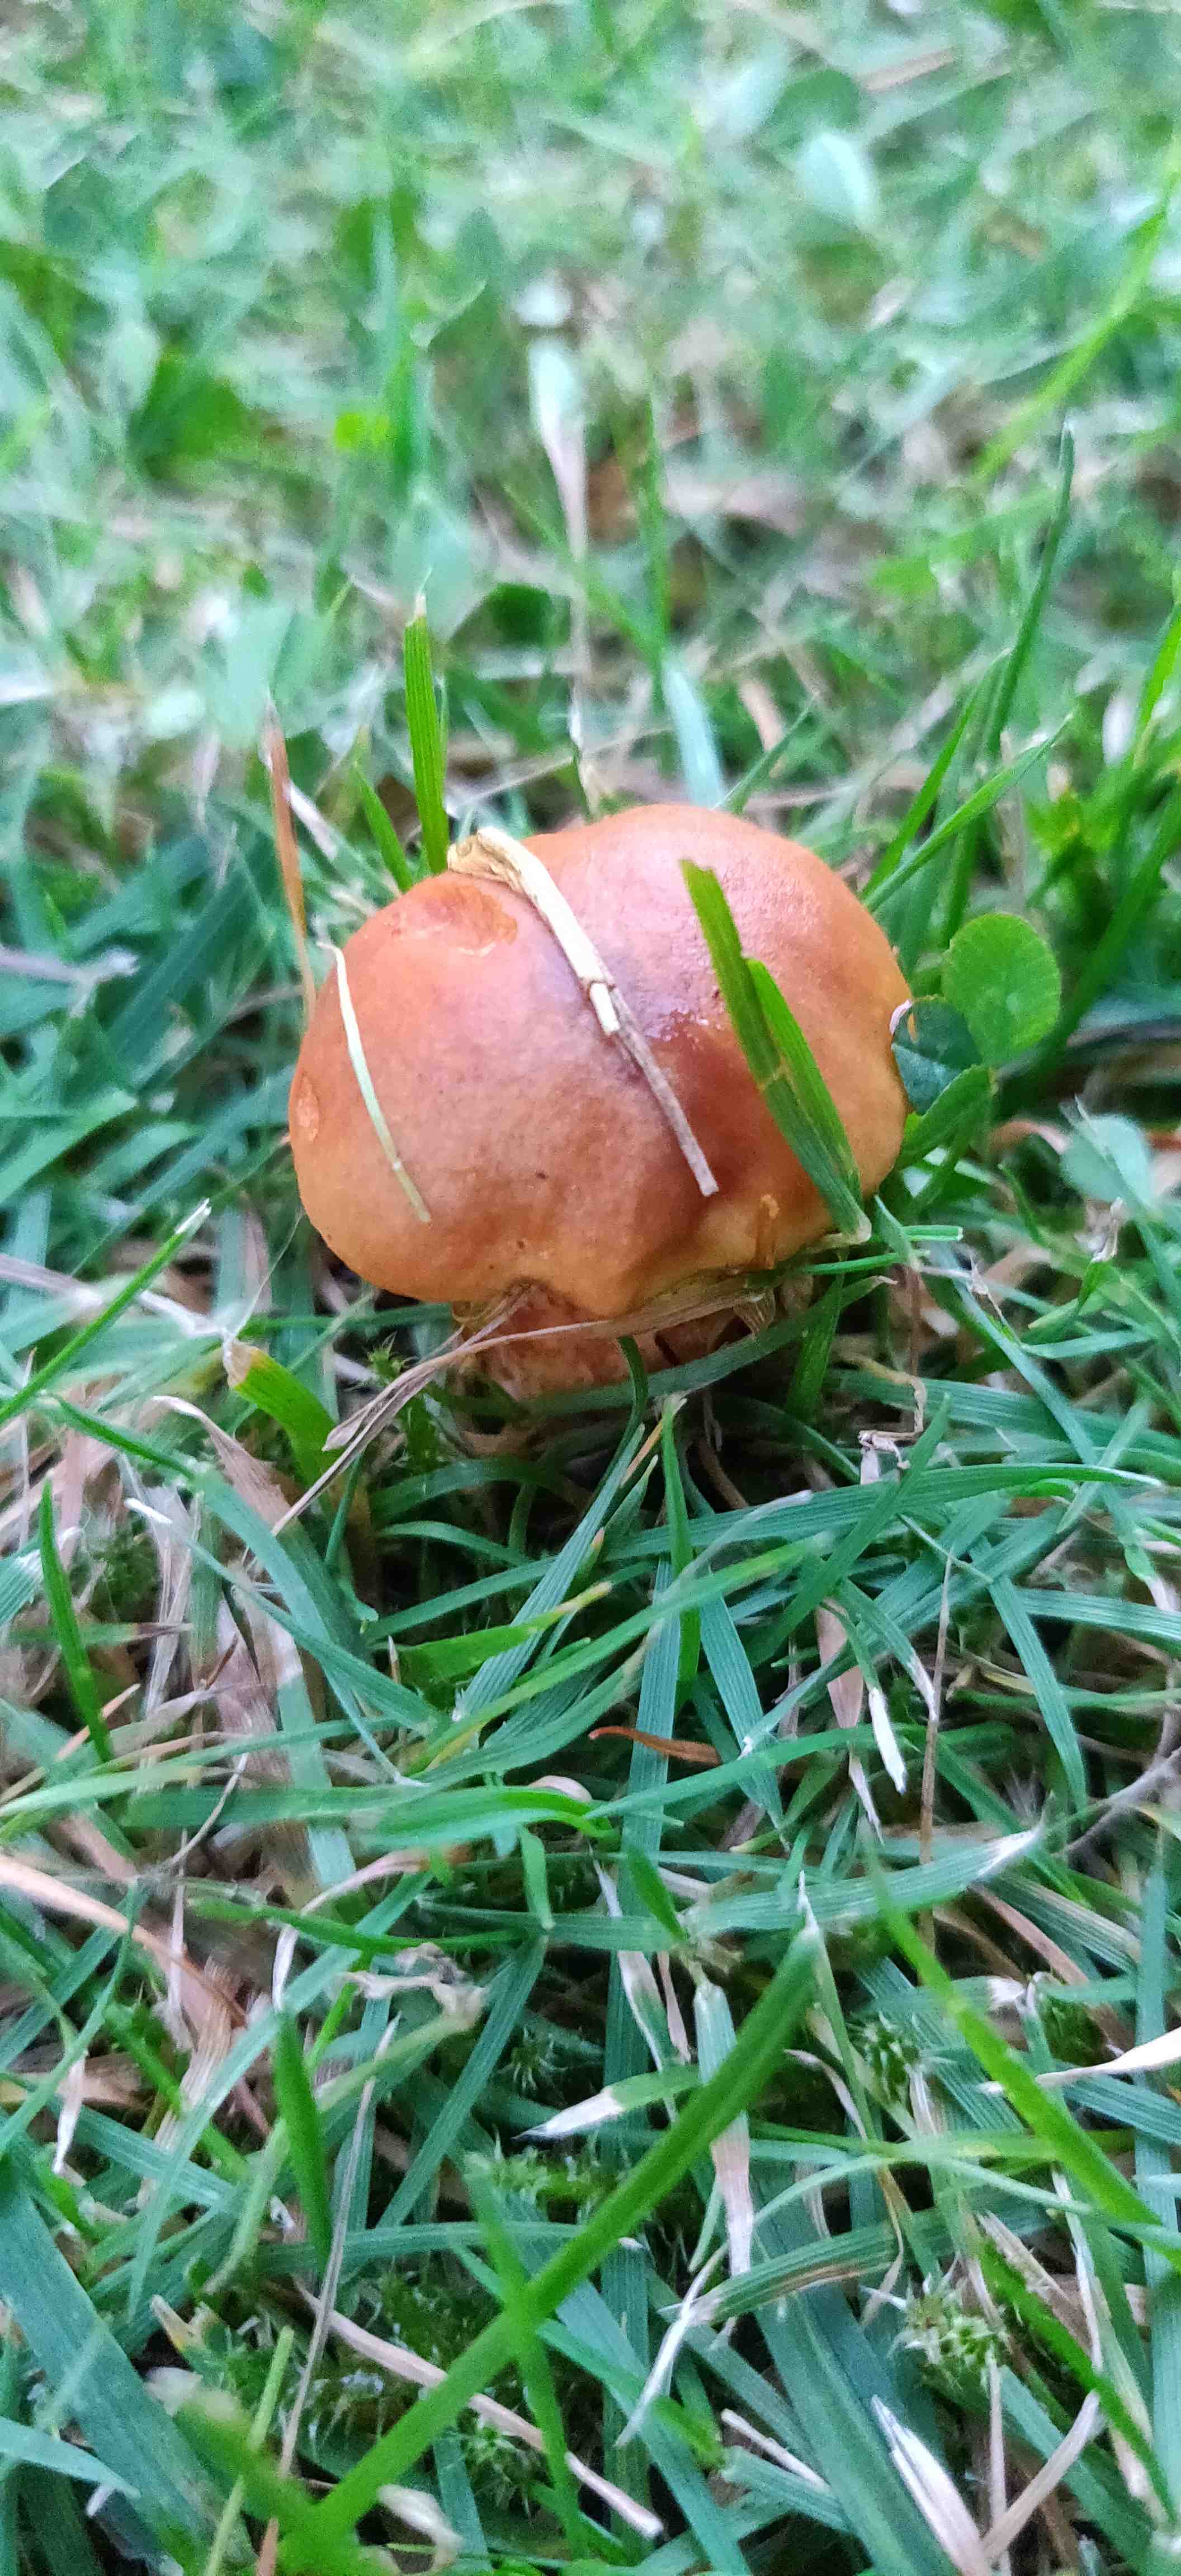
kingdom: Fungi
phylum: Basidiomycota
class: Agaricomycetes
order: Boletales
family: Suillaceae
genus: Suillus
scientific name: Suillus grevillei
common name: lærke-slimrørhat
